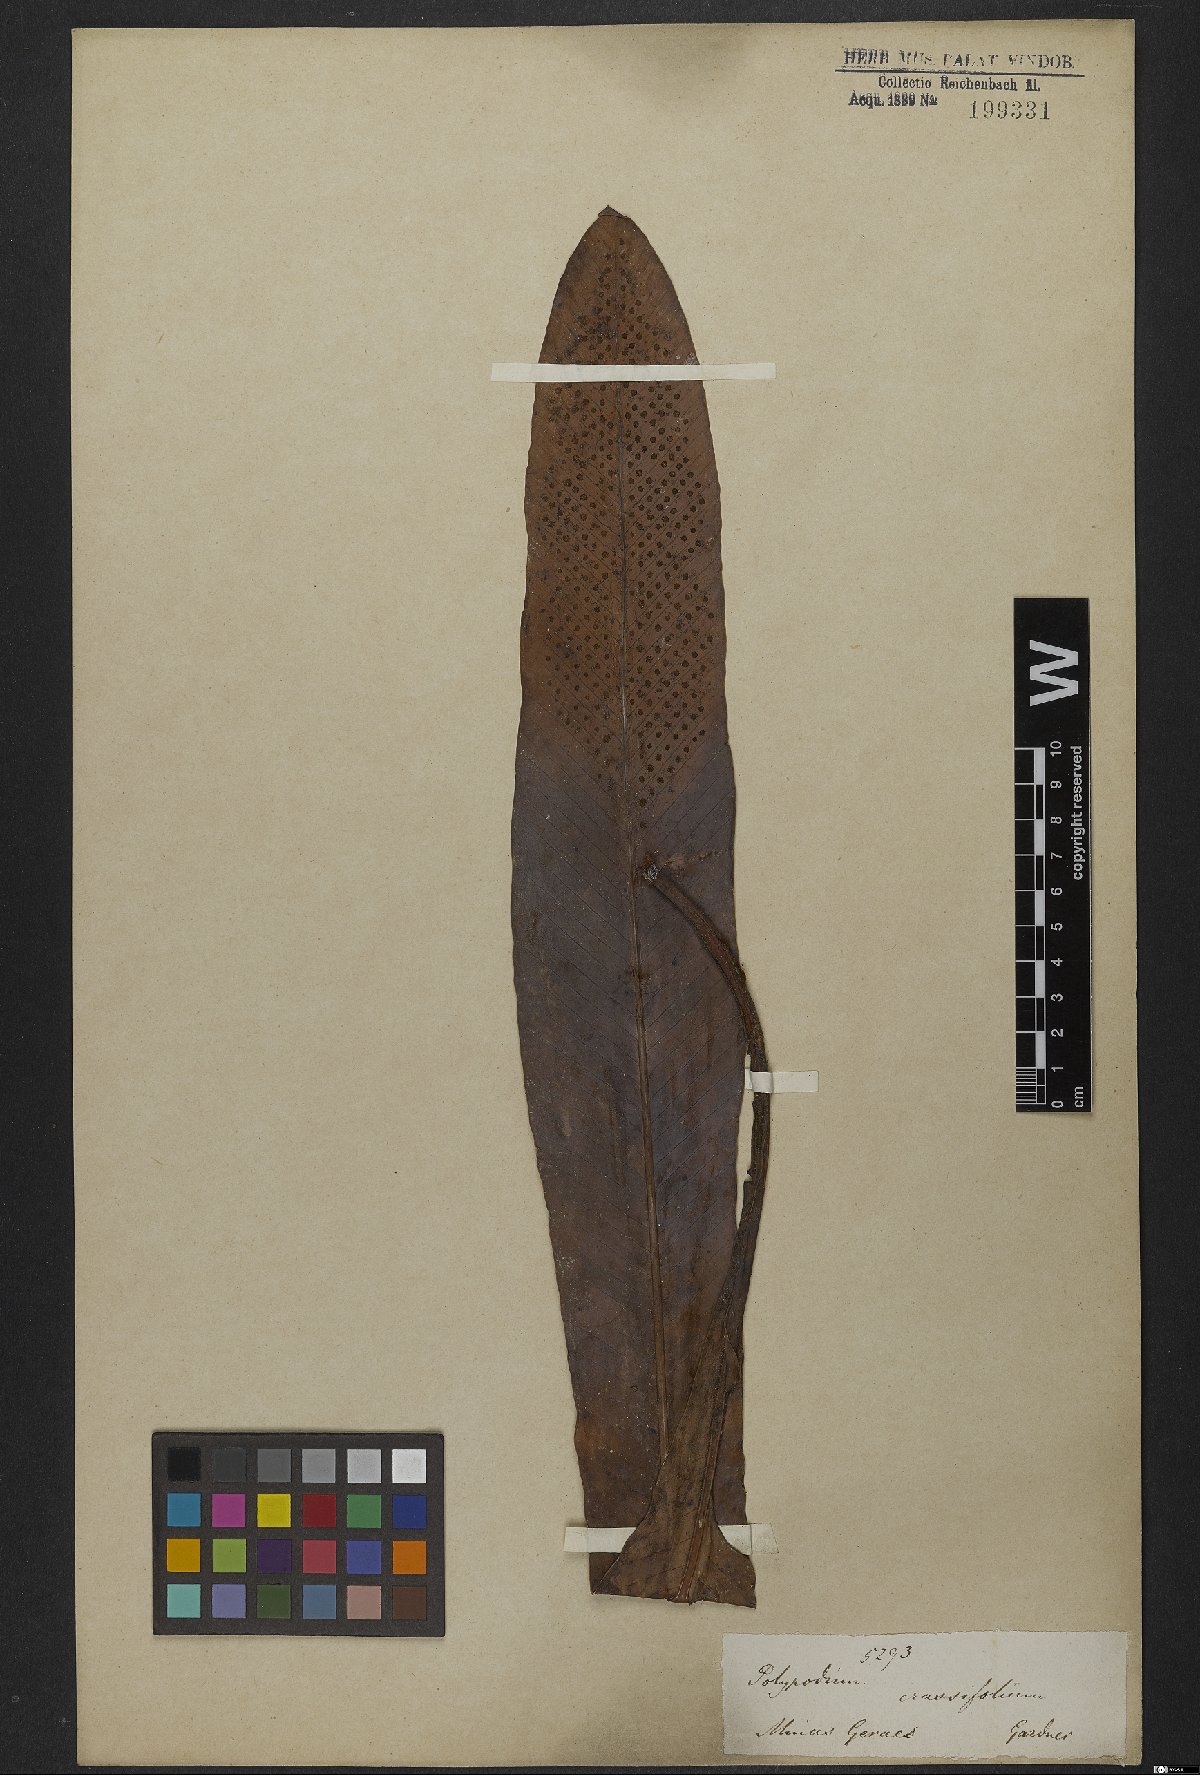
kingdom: Plantae
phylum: Tracheophyta
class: Polypodiopsida
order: Polypodiales
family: Polypodiaceae
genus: Niphidium
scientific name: Niphidium crassifolium
